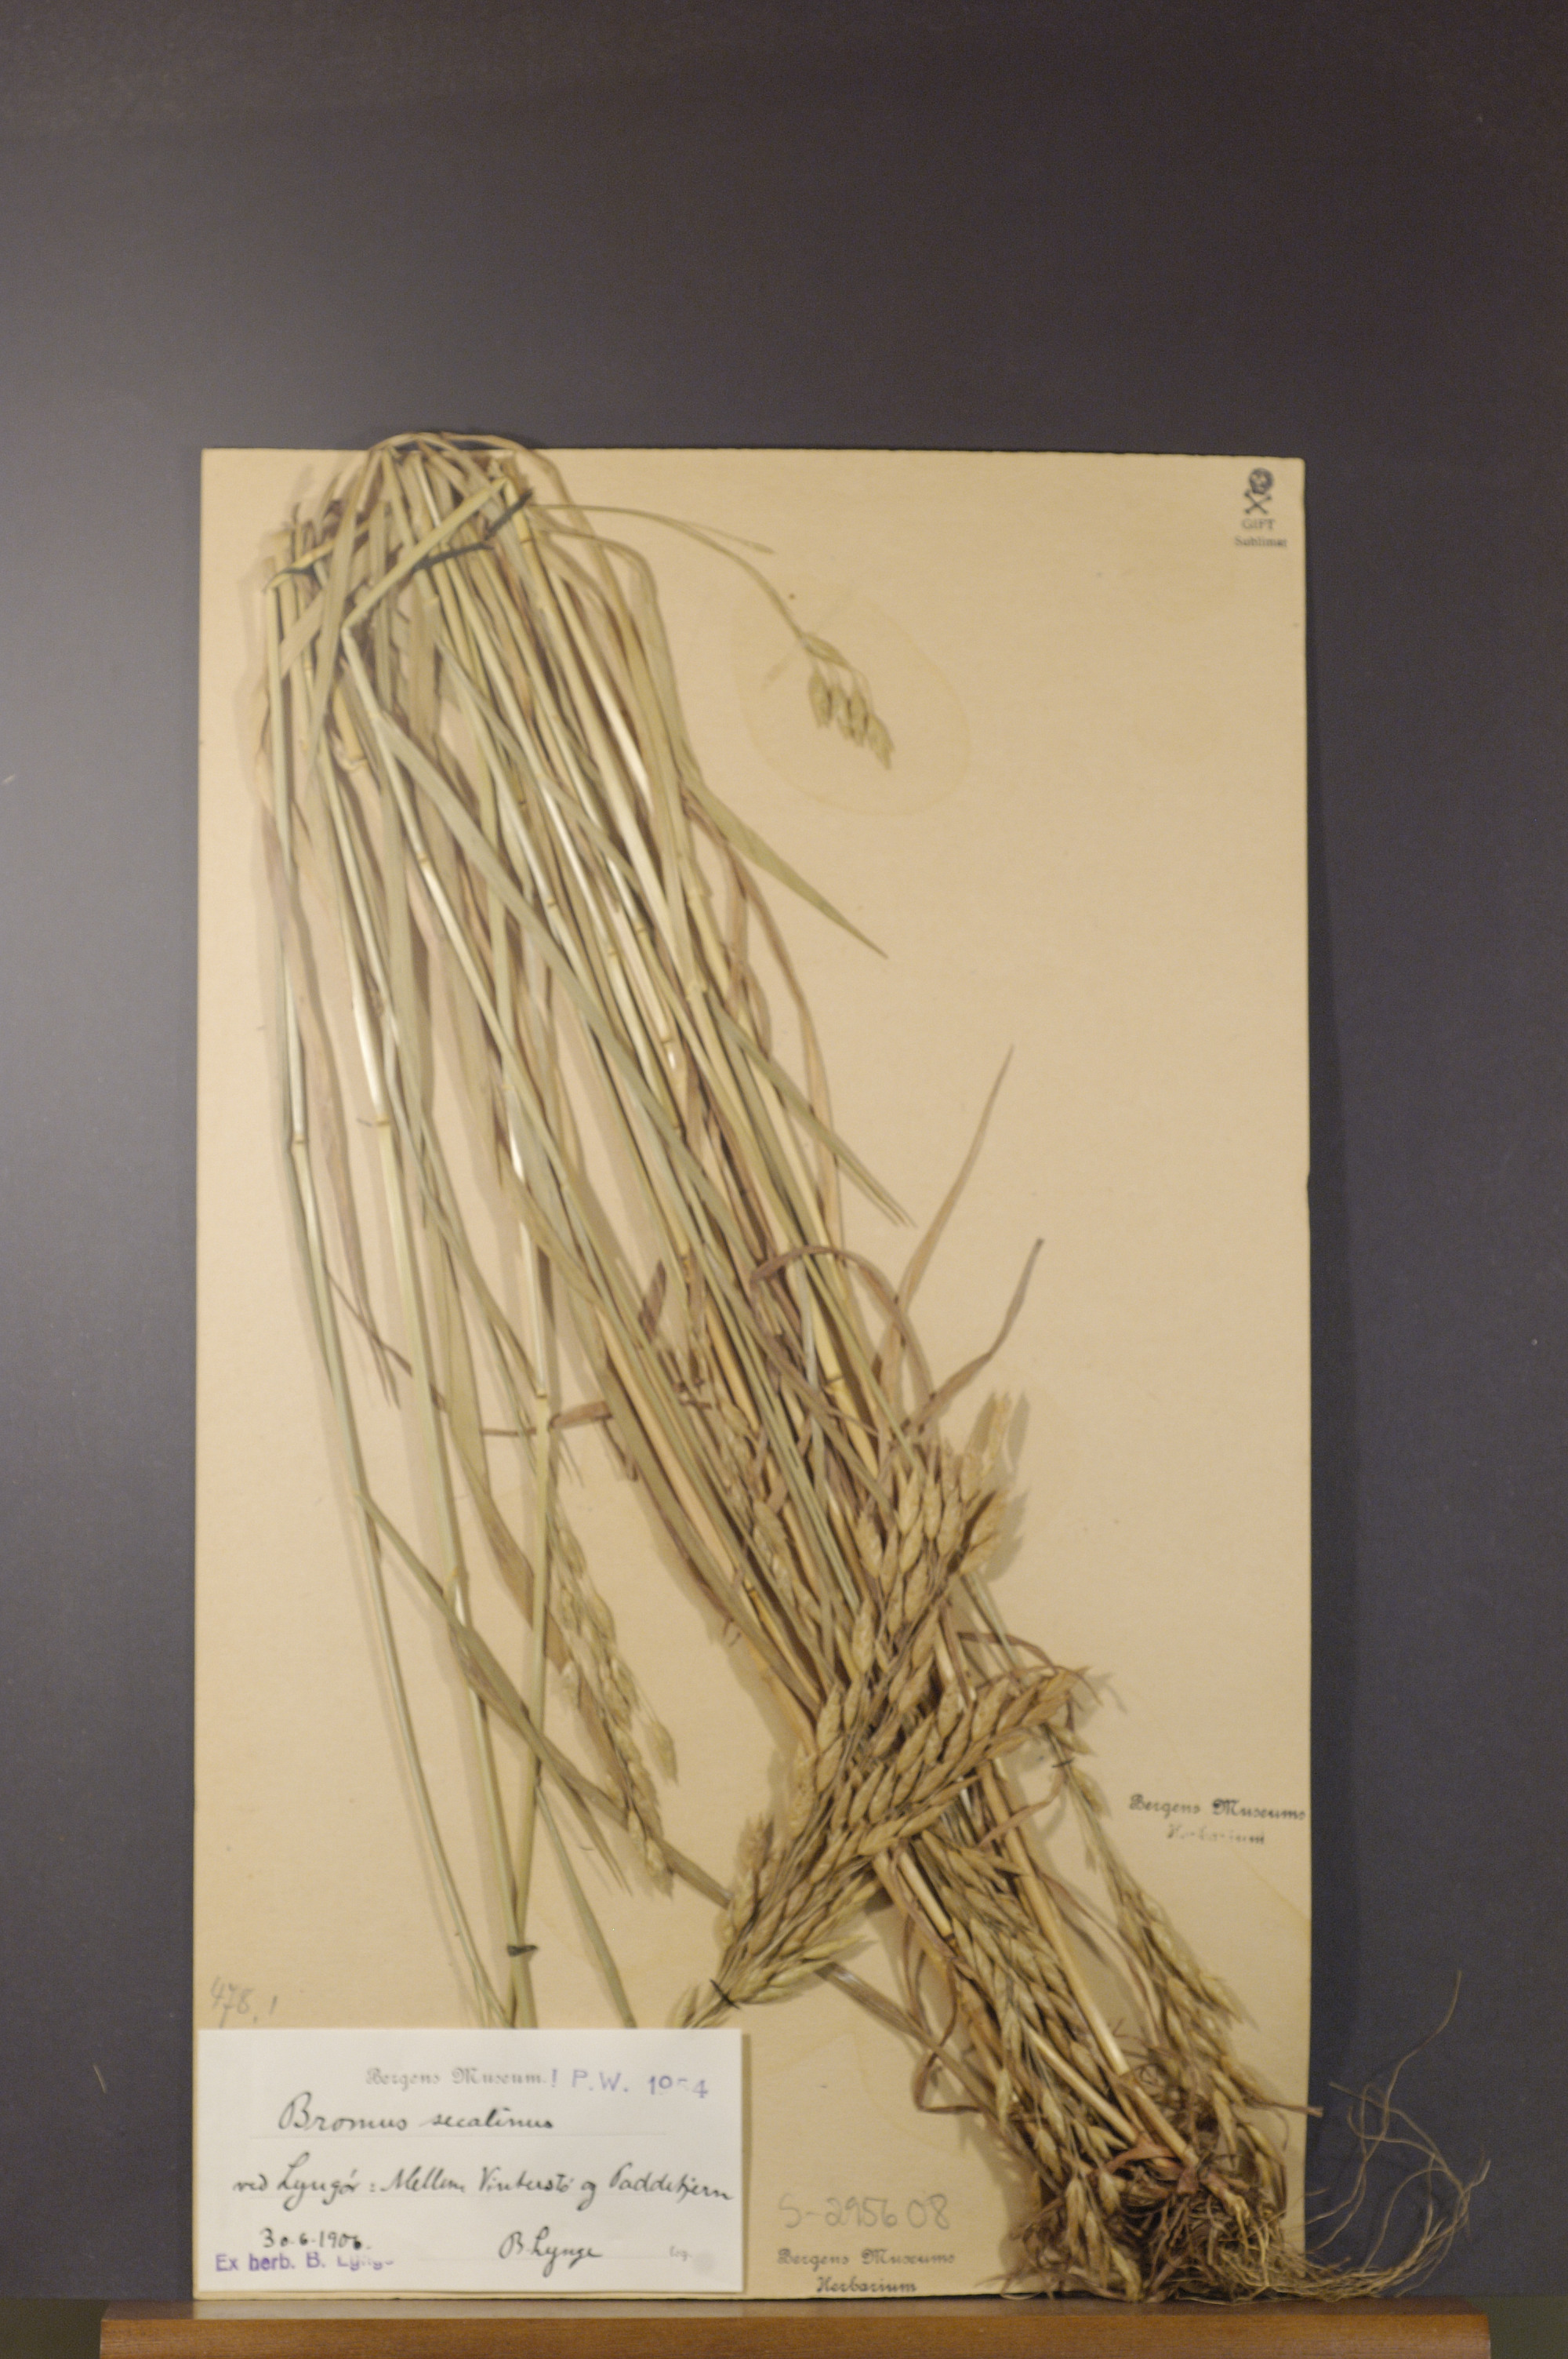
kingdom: Plantae
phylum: Tracheophyta
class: Liliopsida
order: Poales
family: Poaceae
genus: Bromus
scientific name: Bromus secalinus
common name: Rye brome
